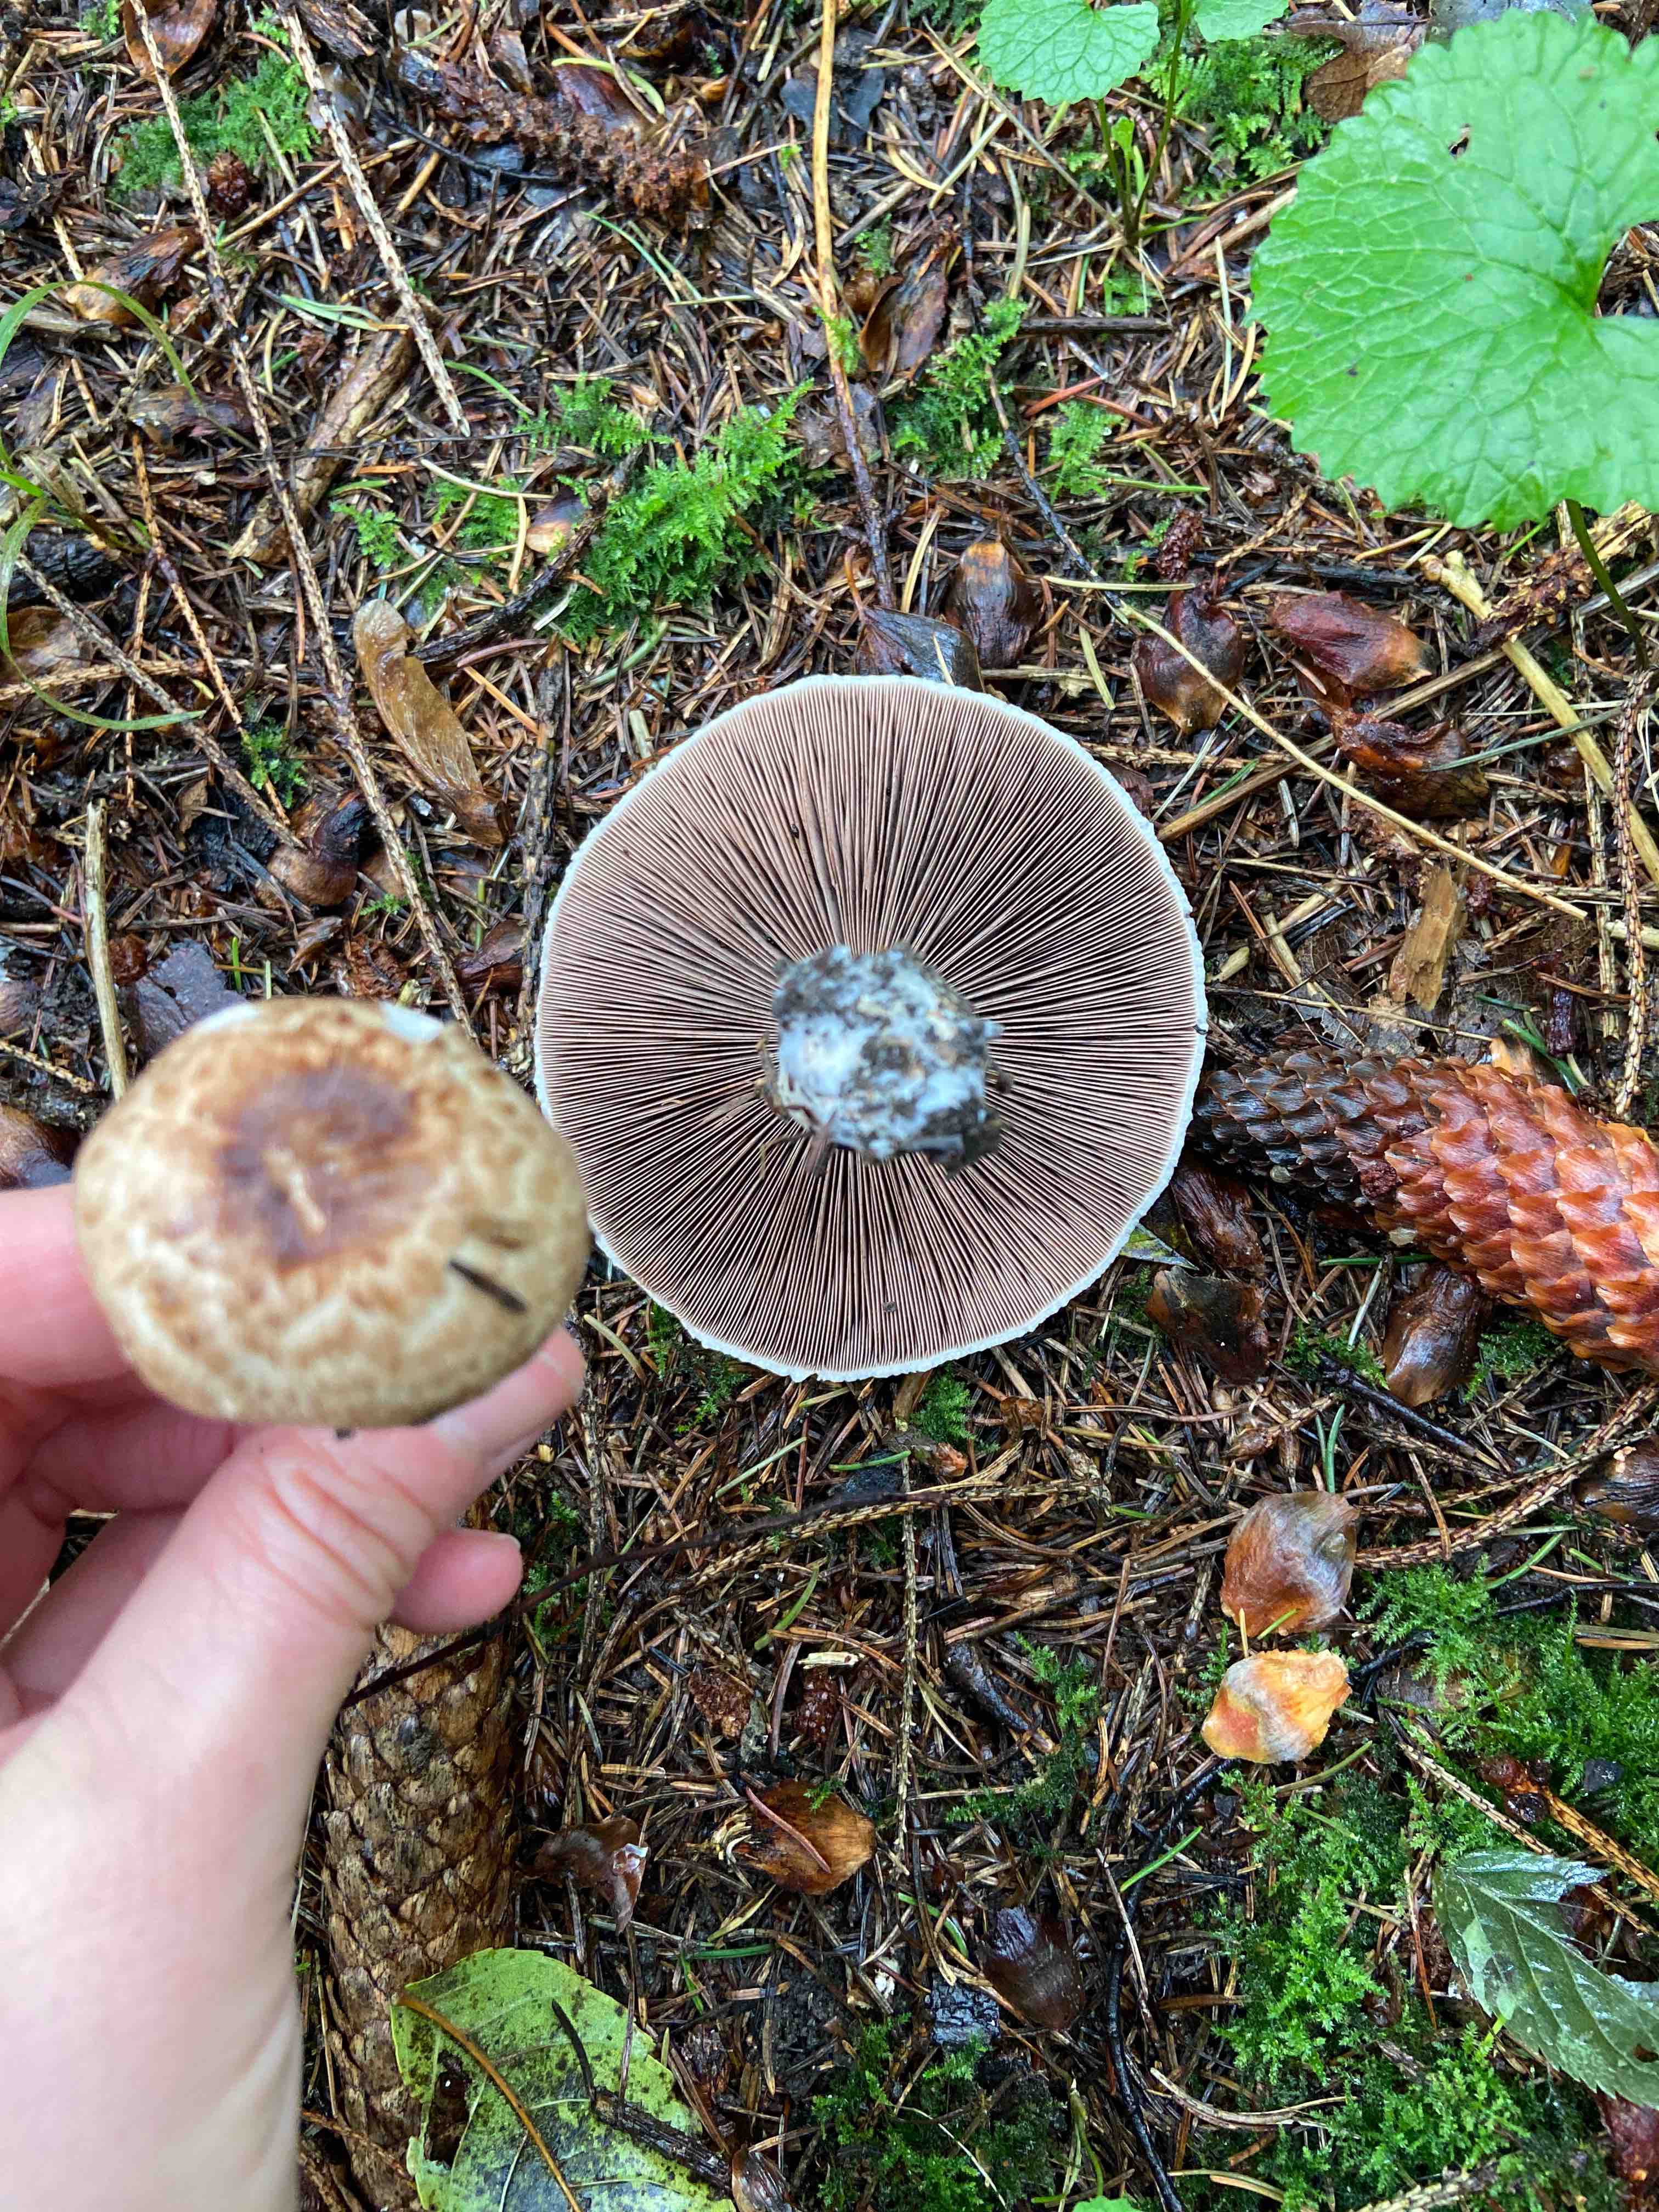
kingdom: Fungi
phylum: Basidiomycota
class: Agaricomycetes
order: Agaricales
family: Agaricaceae
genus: Agaricus
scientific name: Agaricus impudicus
